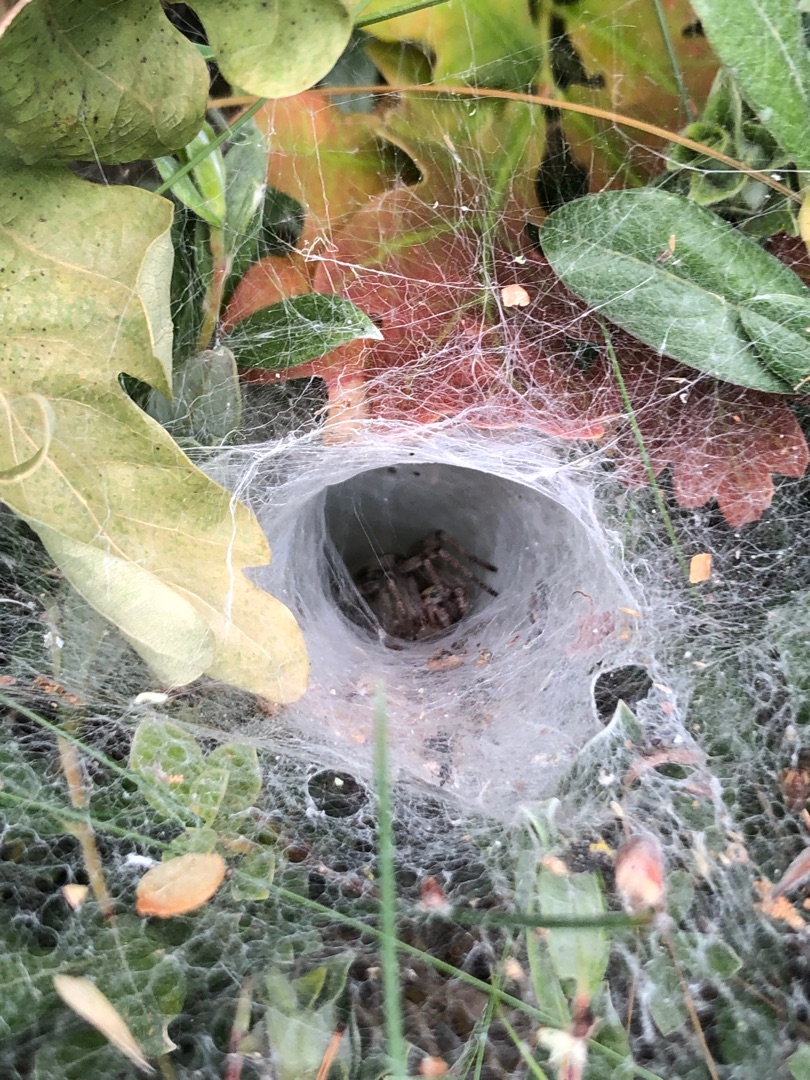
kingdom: Animalia
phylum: Arthropoda
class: Arachnida
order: Araneae
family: Agelenidae
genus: Agelena
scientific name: Agelena labyrinthica
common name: Labyrintedderkop
